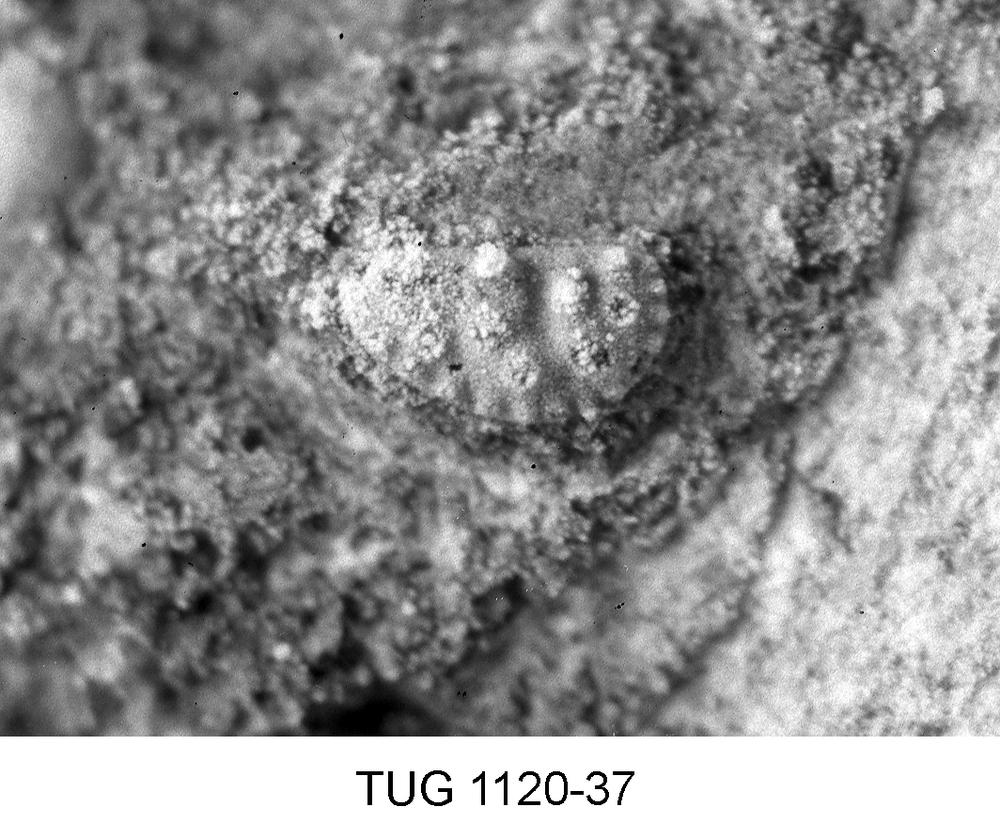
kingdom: Animalia
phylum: Arthropoda
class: Ostracoda
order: Palaeocopida
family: Ctenonotellidae
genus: Kiesowia
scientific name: Kiesowia
